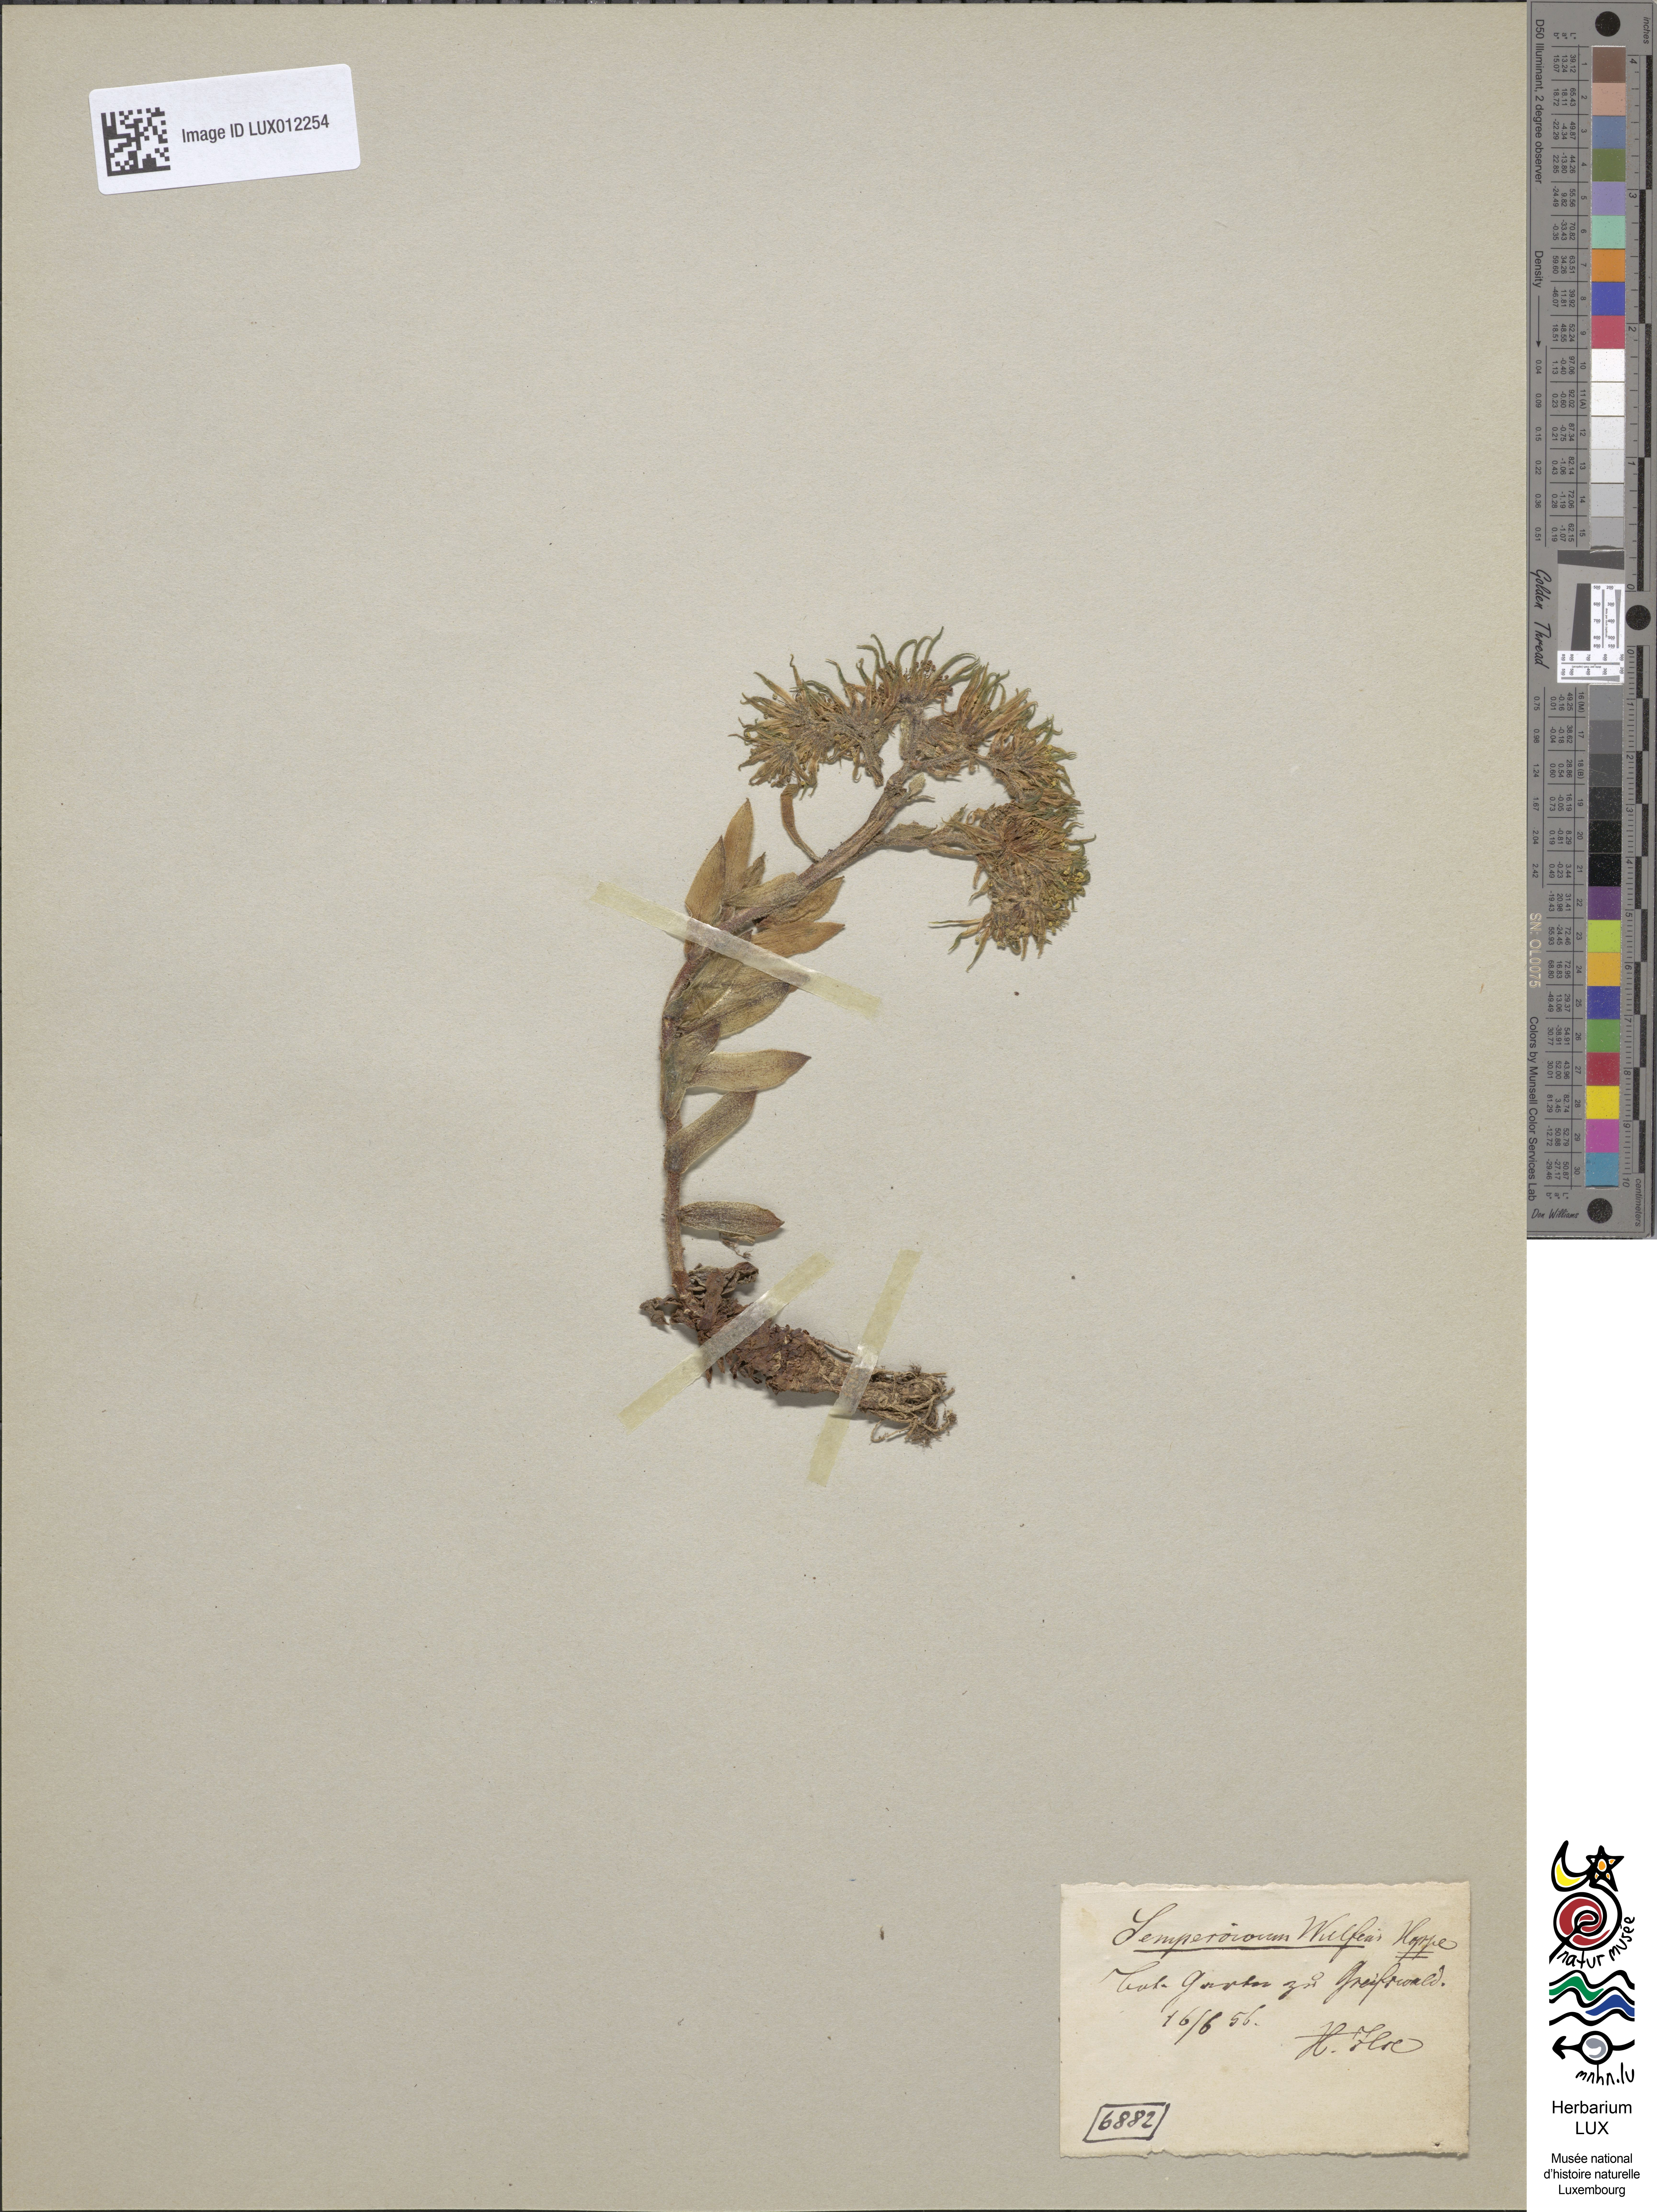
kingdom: Plantae
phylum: Tracheophyta
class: Magnoliopsida
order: Saxifragales
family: Crassulaceae
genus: Sempervivum
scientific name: Sempervivum wulfenii
